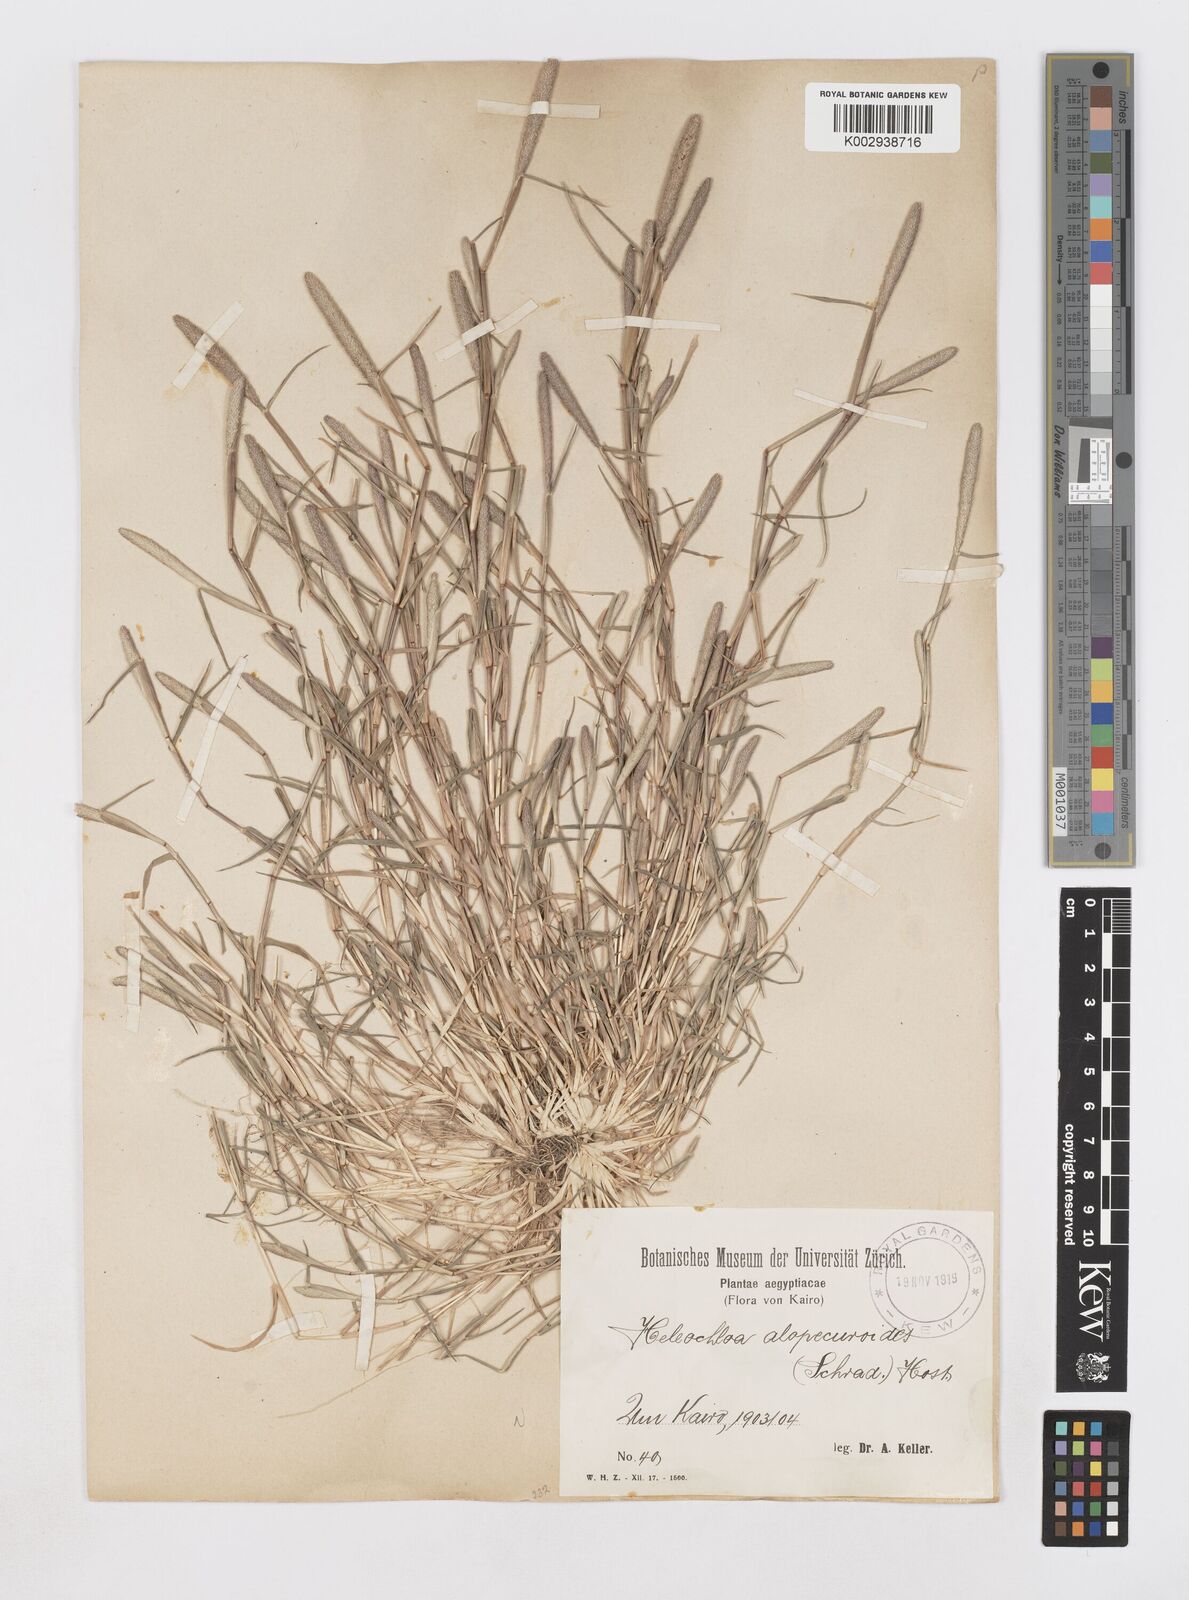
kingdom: Plantae
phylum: Tracheophyta
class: Liliopsida
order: Poales
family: Poaceae
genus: Sporobolus
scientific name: Sporobolus alopecuroides
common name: Foxtail pricklegrass
